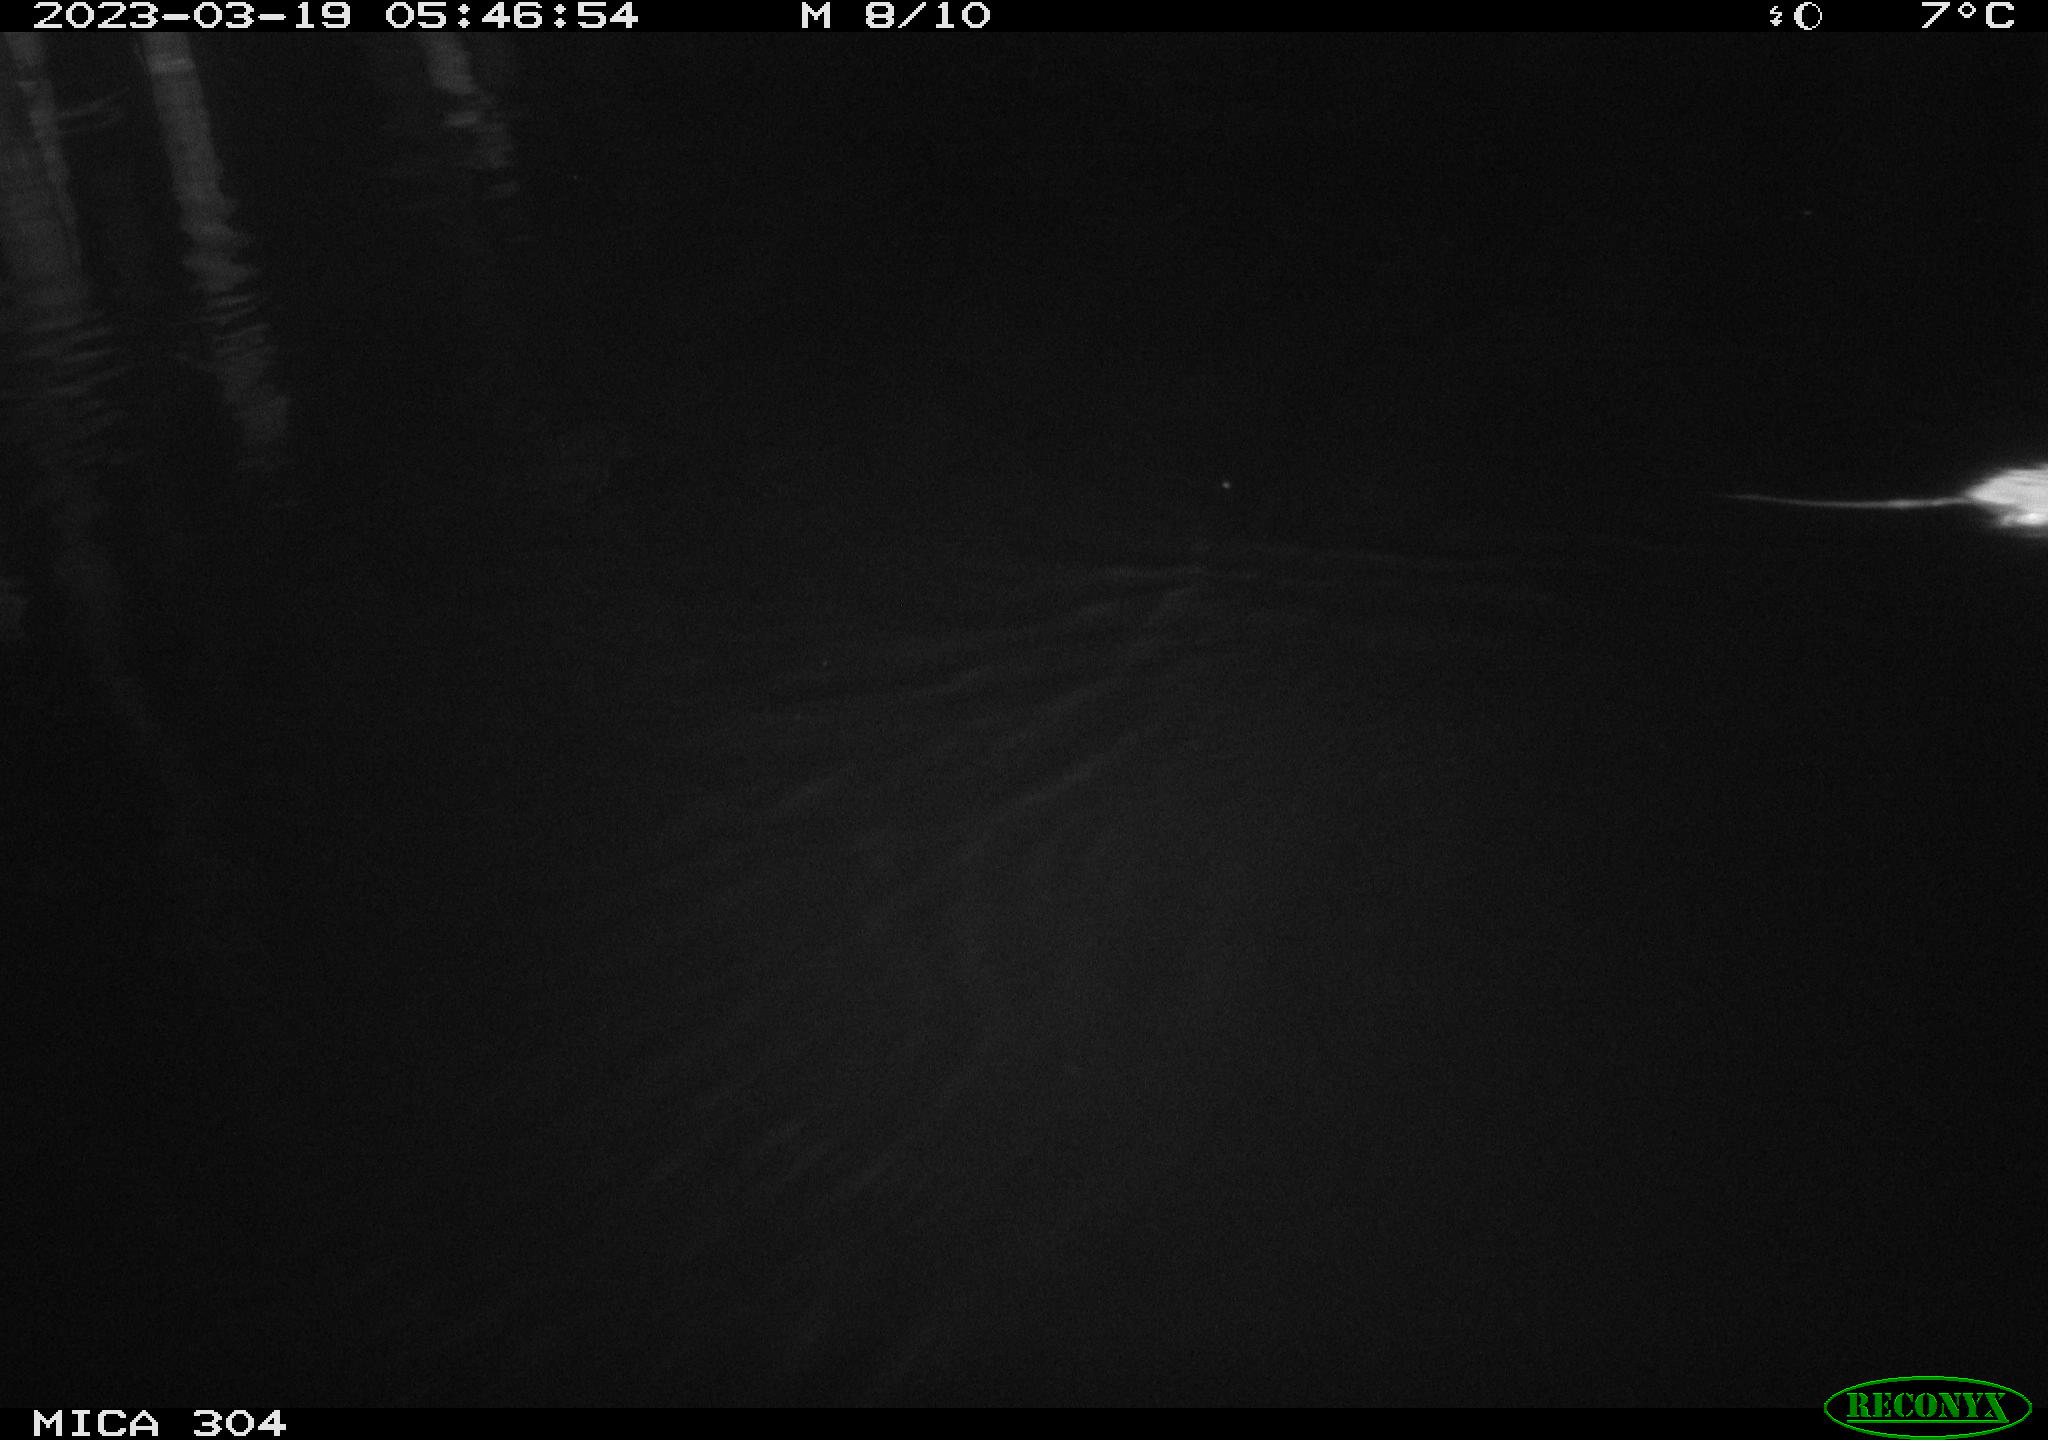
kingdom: Animalia
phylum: Chordata
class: Mammalia
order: Rodentia
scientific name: Rodentia
